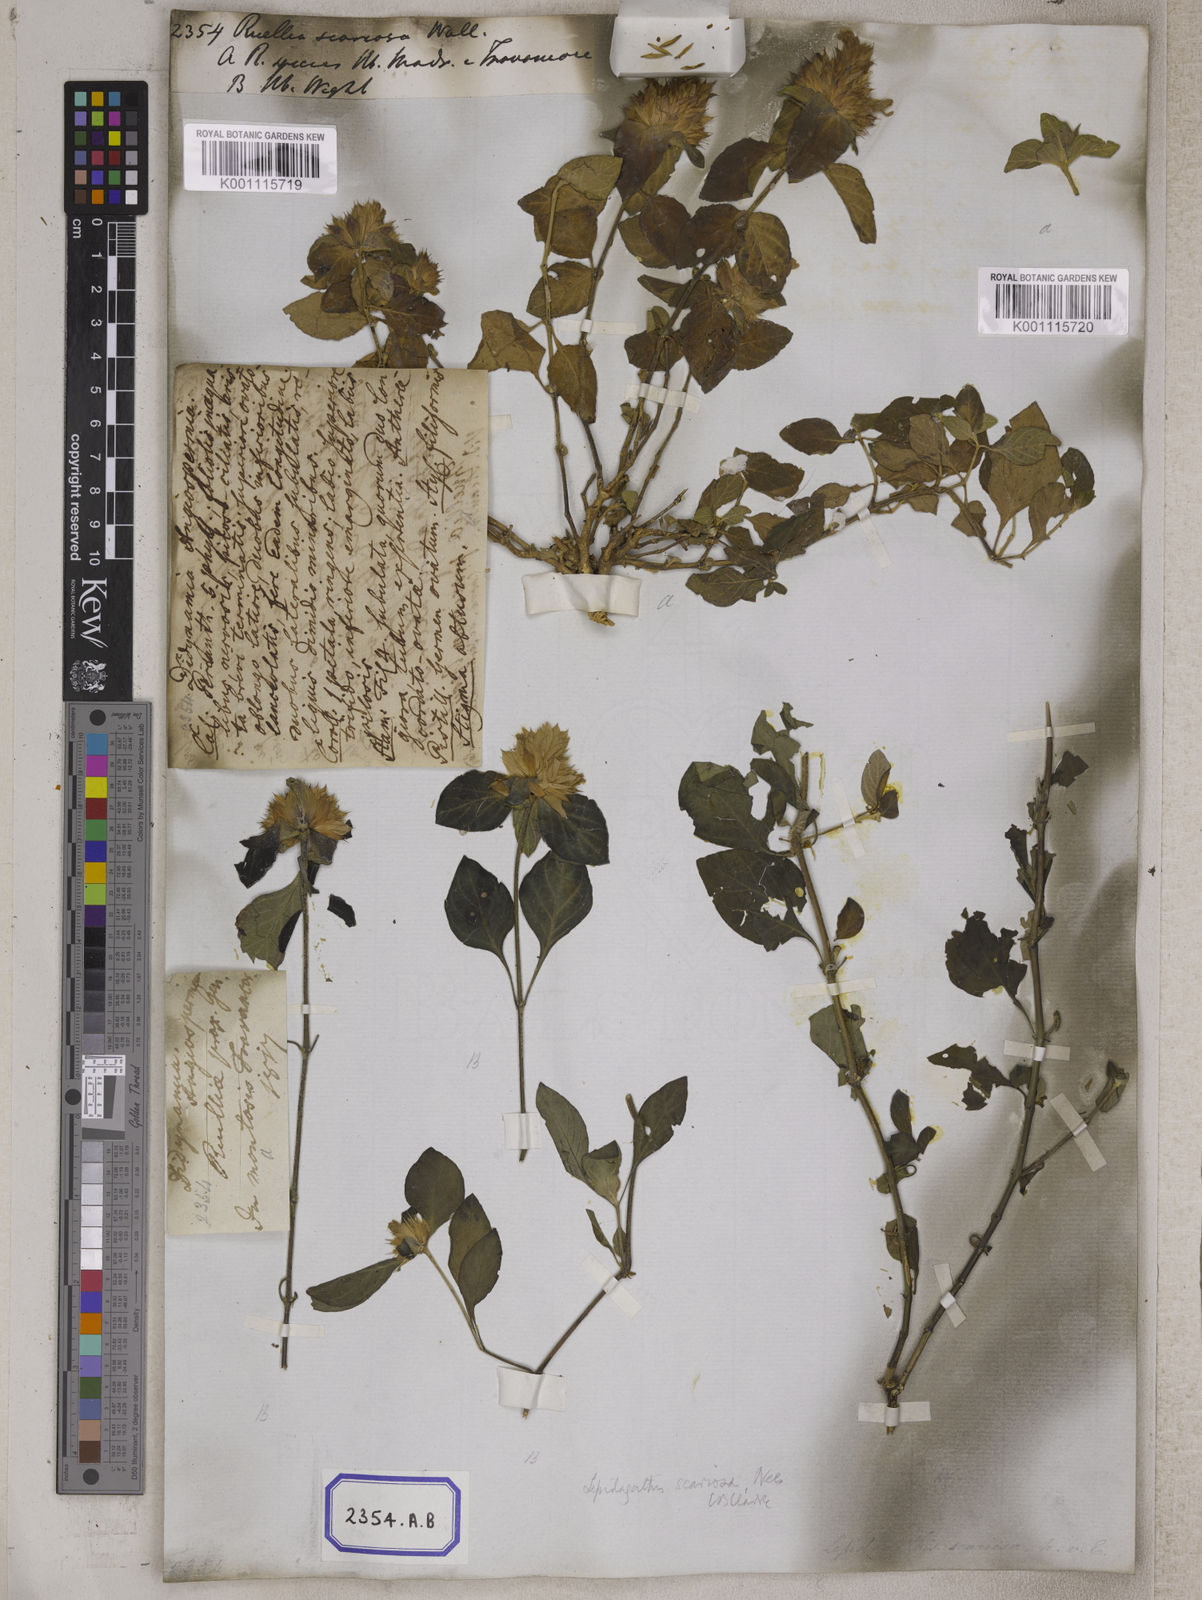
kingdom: Plantae
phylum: Tracheophyta
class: Magnoliopsida
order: Lamiales
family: Acanthaceae
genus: Ruellia
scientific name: Ruellia
